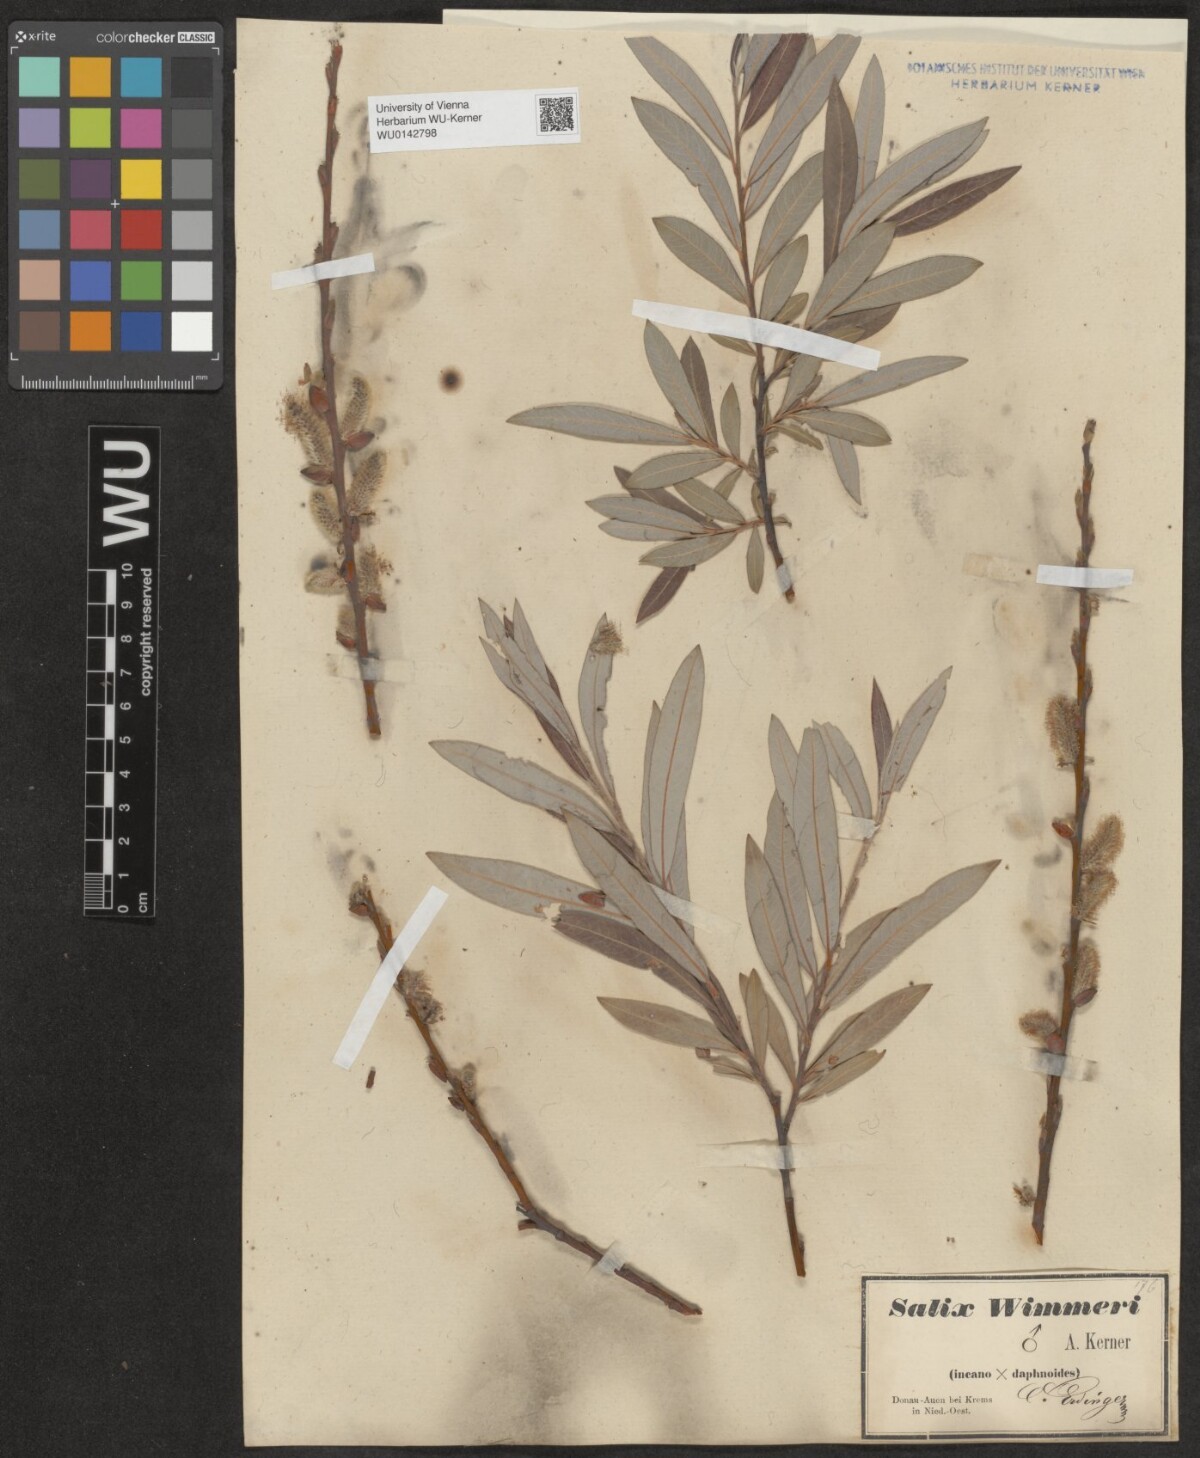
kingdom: Plantae
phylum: Tracheophyta
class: Magnoliopsida
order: Malpighiales
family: Salicaceae
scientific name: Salicaceae
